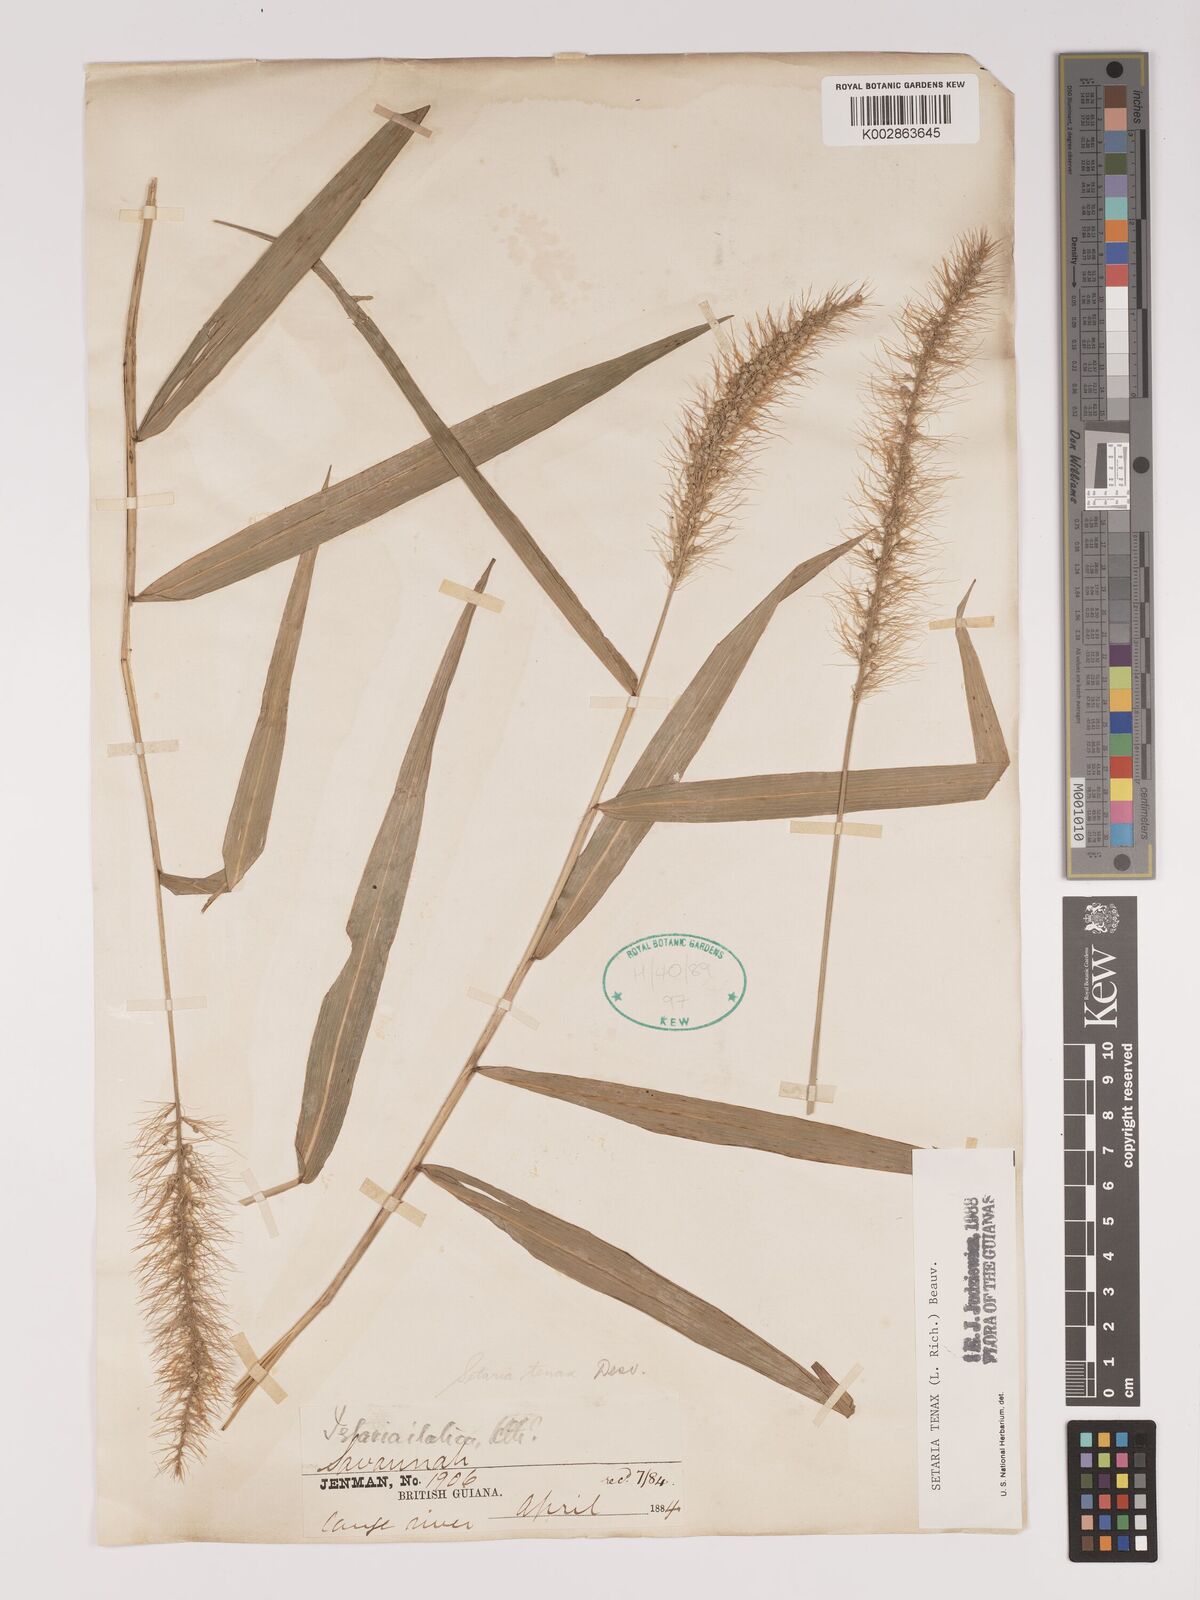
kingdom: Plantae
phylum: Tracheophyta
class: Liliopsida
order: Poales
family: Poaceae
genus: Setaria
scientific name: Setaria tenax
